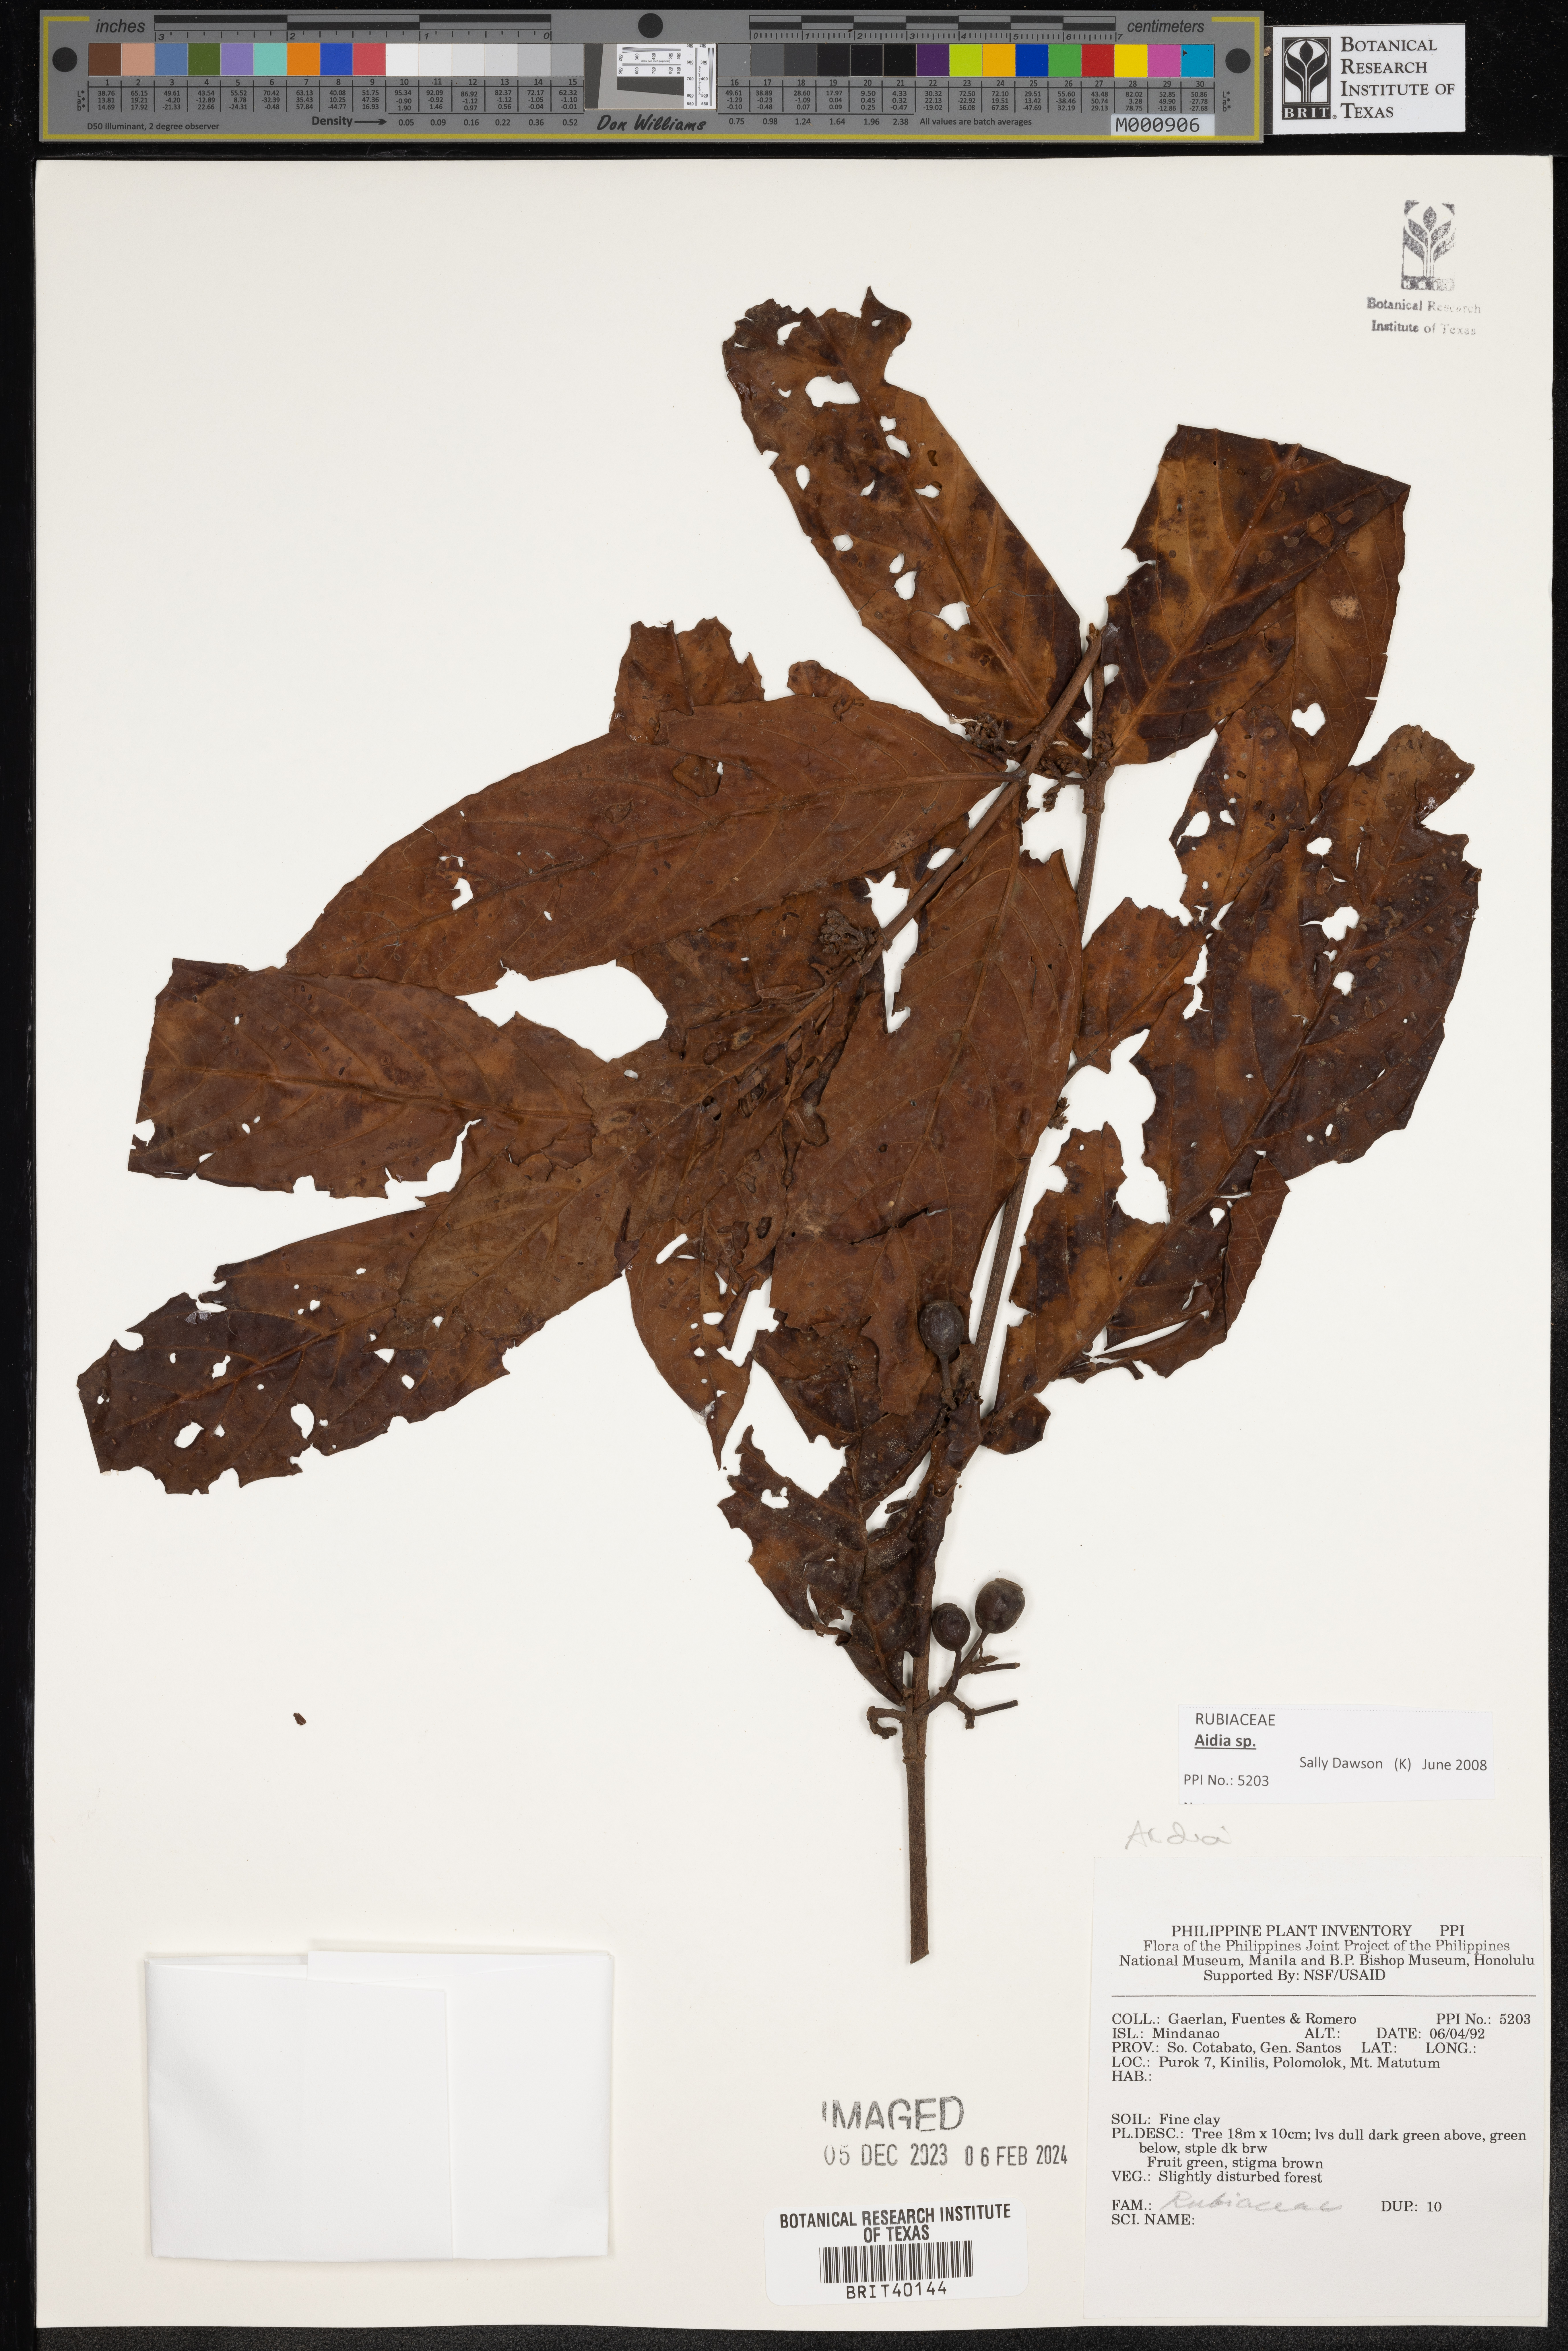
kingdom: Plantae
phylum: Tracheophyta
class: Magnoliopsida
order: Gentianales
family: Rubiaceae
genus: Aidia
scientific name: Aidia
